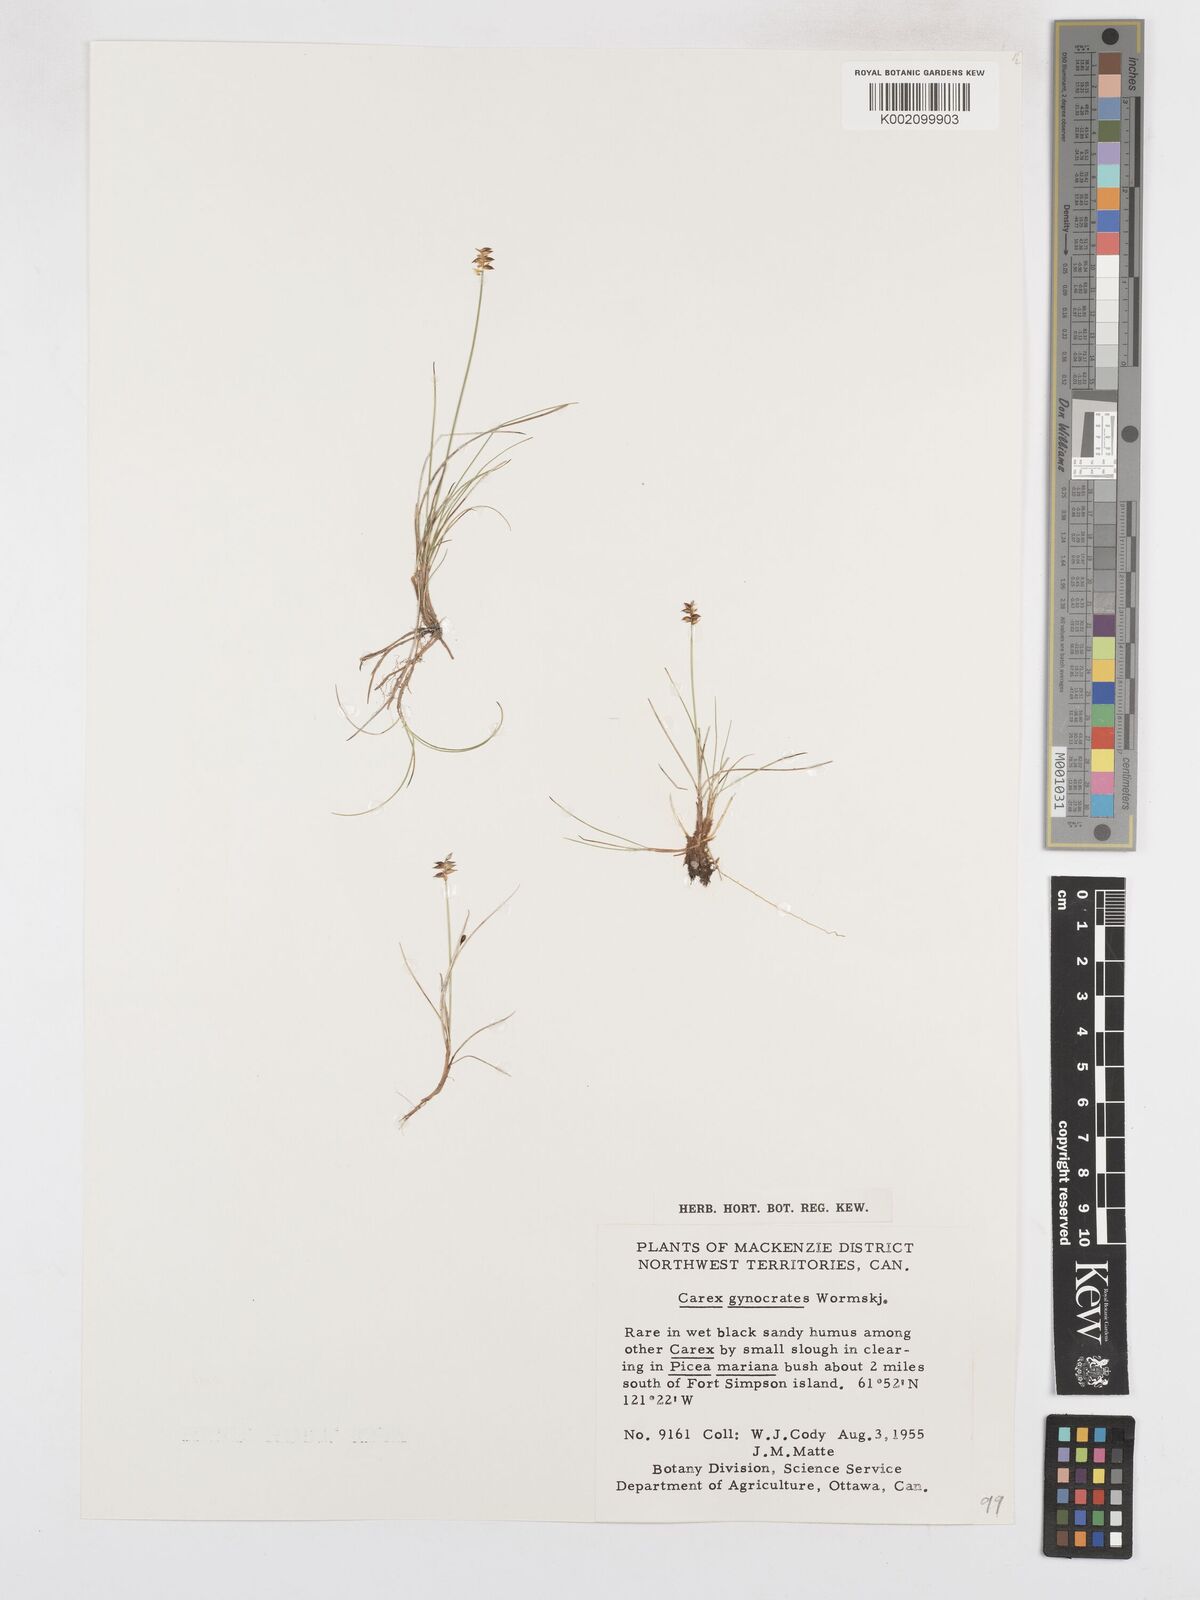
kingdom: Plantae
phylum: Tracheophyta
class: Liliopsida
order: Poales
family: Cyperaceae
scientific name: Cyperaceae
